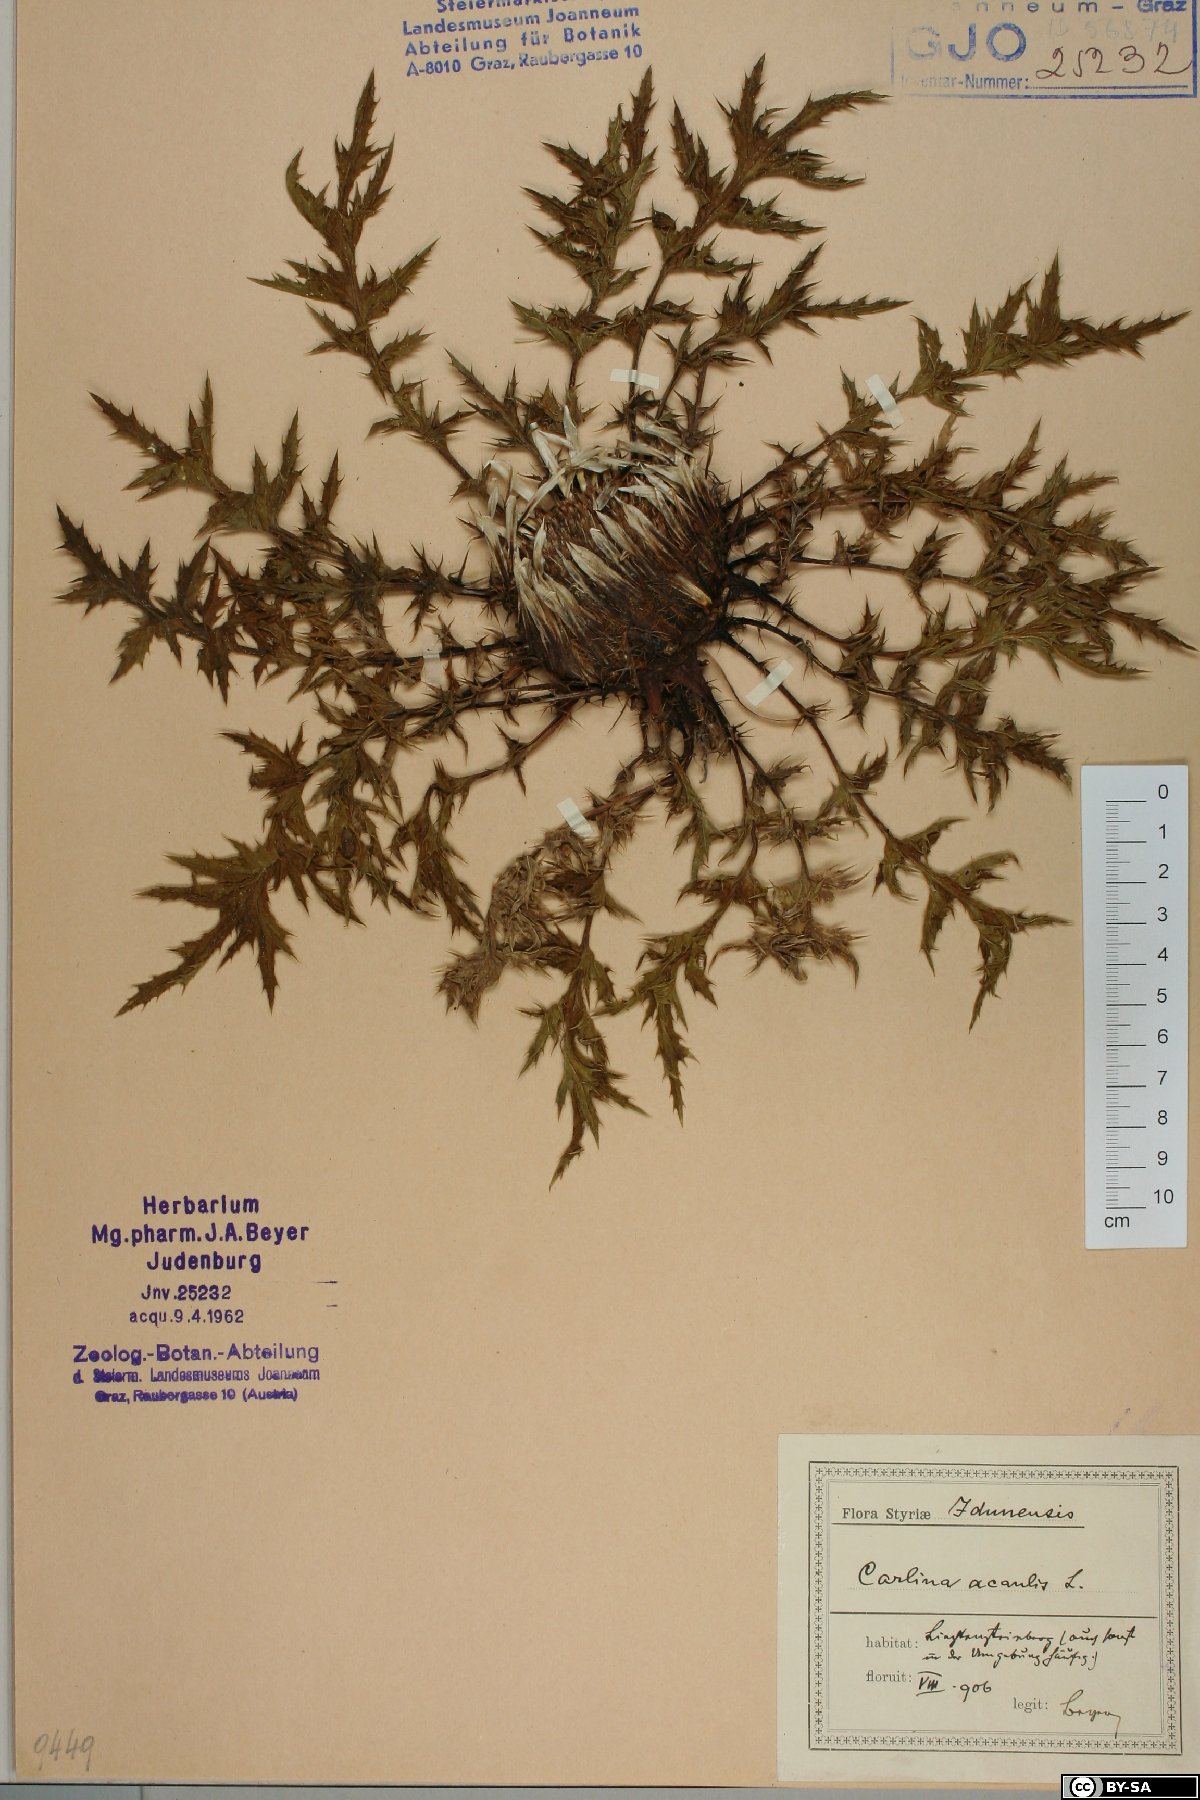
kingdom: Plantae
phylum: Tracheophyta
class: Magnoliopsida
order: Asterales
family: Asteraceae
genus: Carlina
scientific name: Carlina acaulis
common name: Stemless carline thistle
